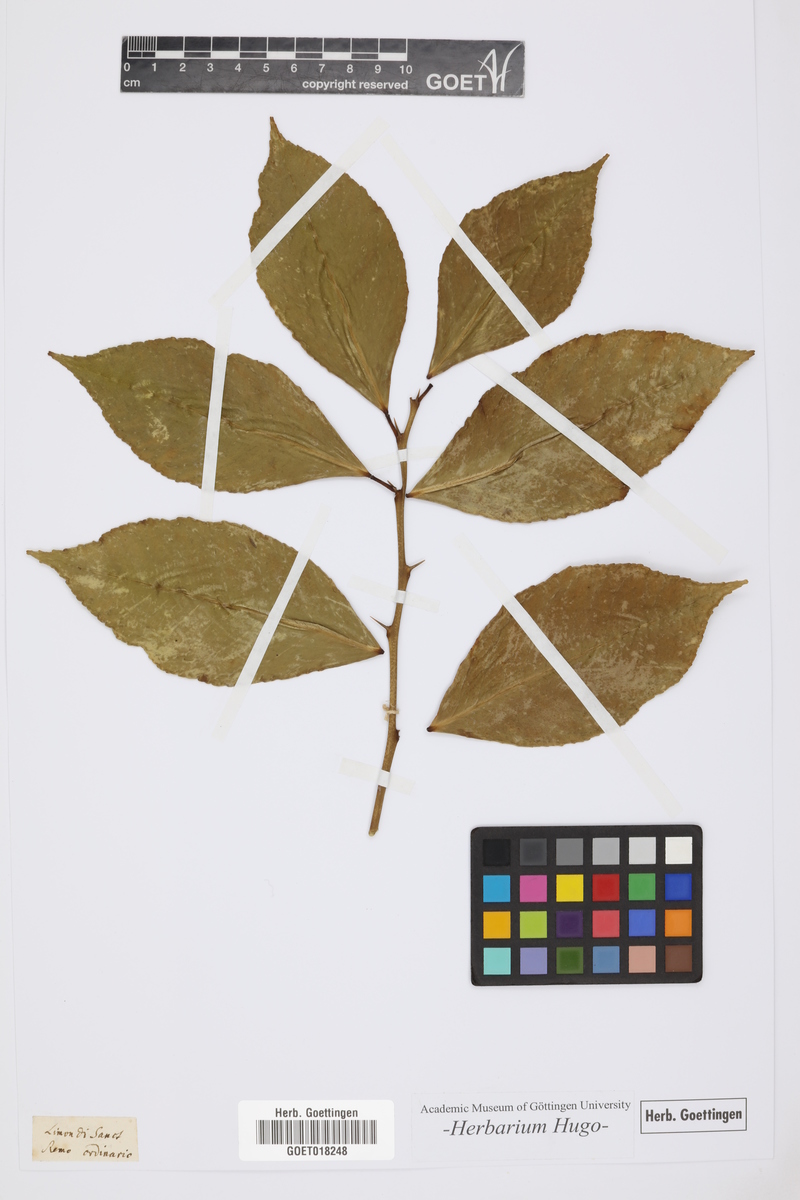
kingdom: Plantae
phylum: Tracheophyta
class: Magnoliopsida
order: Sapindales
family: Rutaceae
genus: Citrus
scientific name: Citrus
